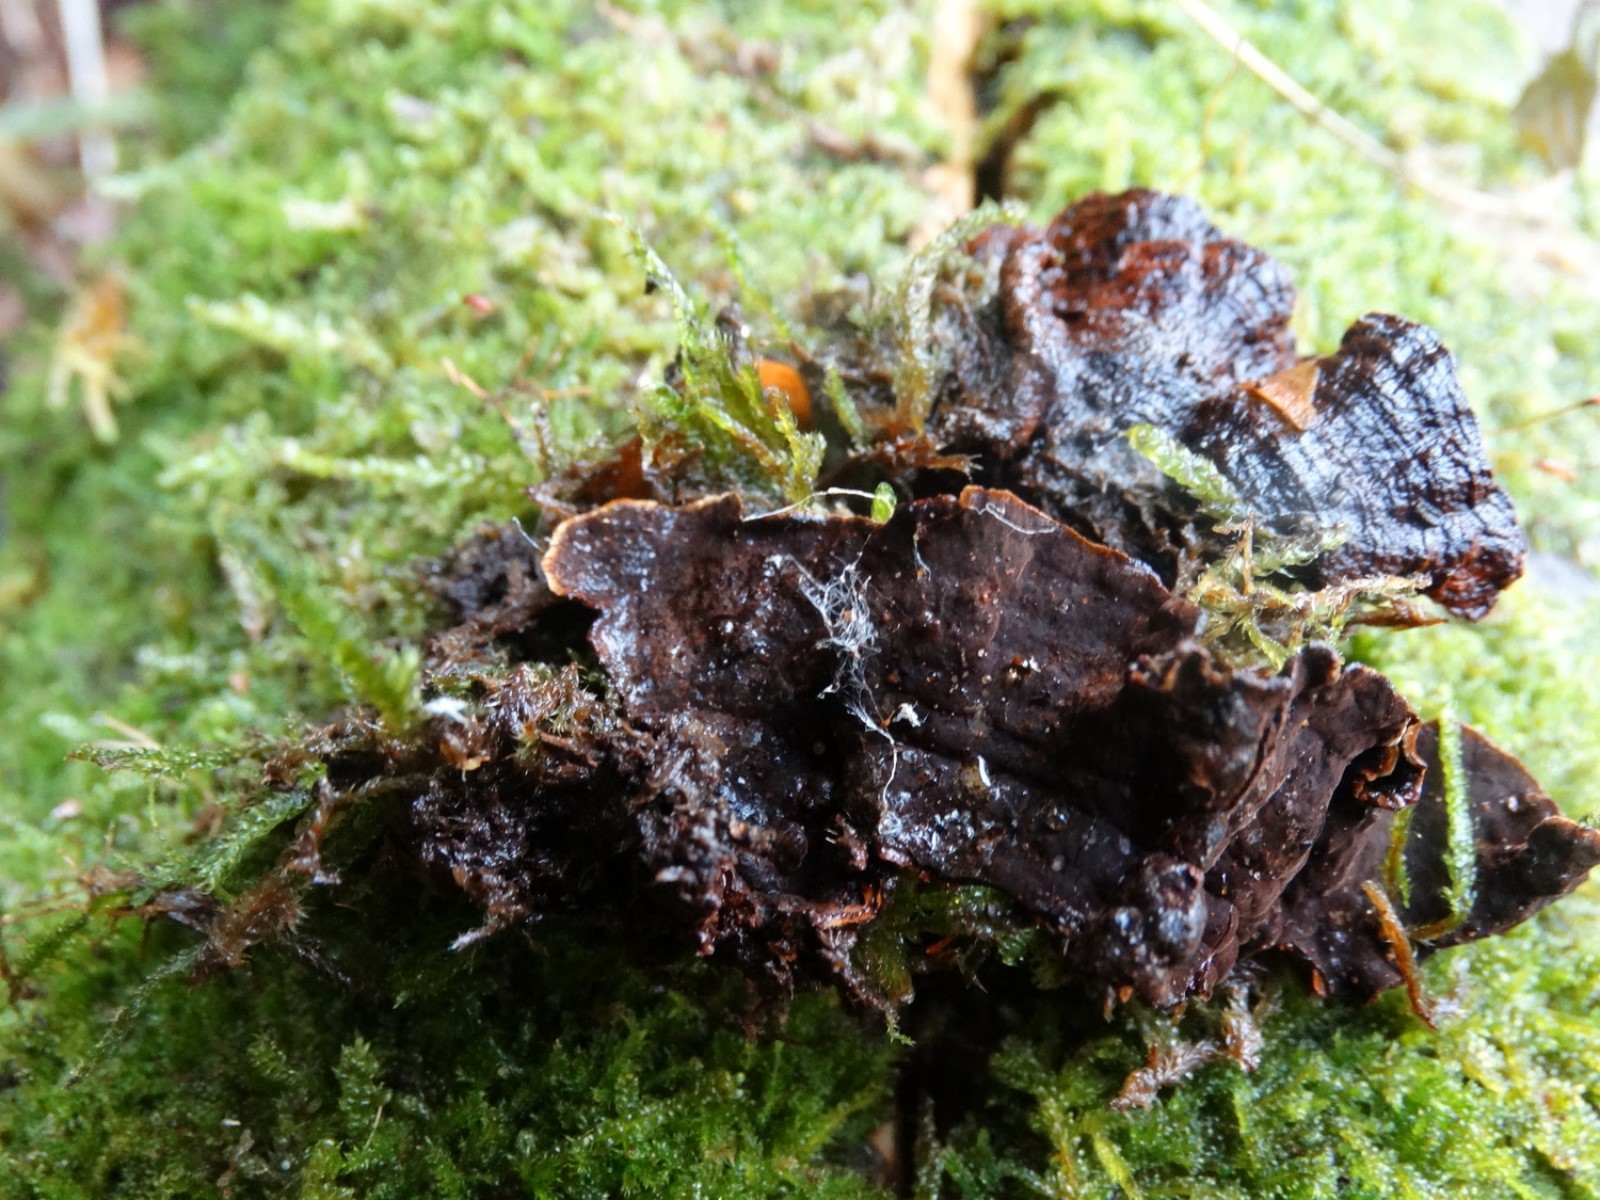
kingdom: Fungi
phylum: Basidiomycota
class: Agaricomycetes
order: Hymenochaetales
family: Hymenochaetaceae
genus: Hymenochaete
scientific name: Hymenochaete rubiginosa
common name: stiv ruslædersvamp
